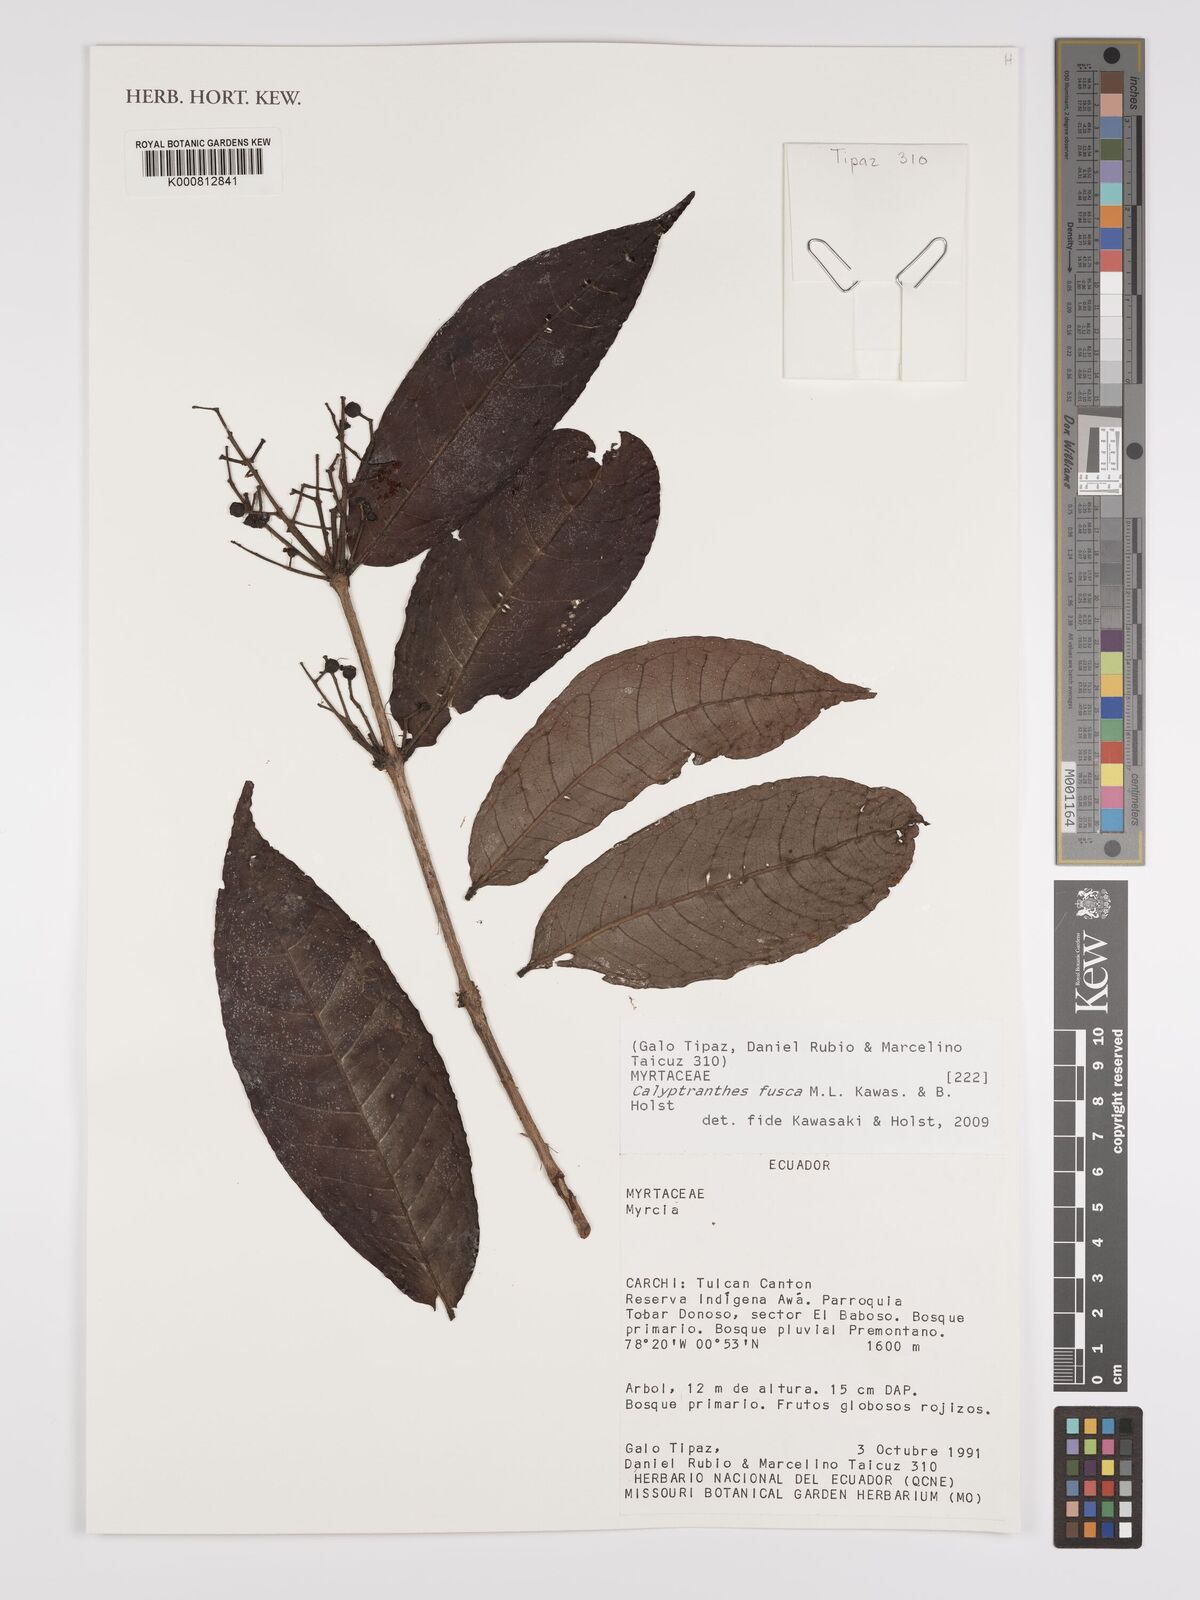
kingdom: Plantae
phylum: Tracheophyta
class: Magnoliopsida
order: Myrtales
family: Myrtaceae
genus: Myrcia
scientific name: Myrcia neofusca
